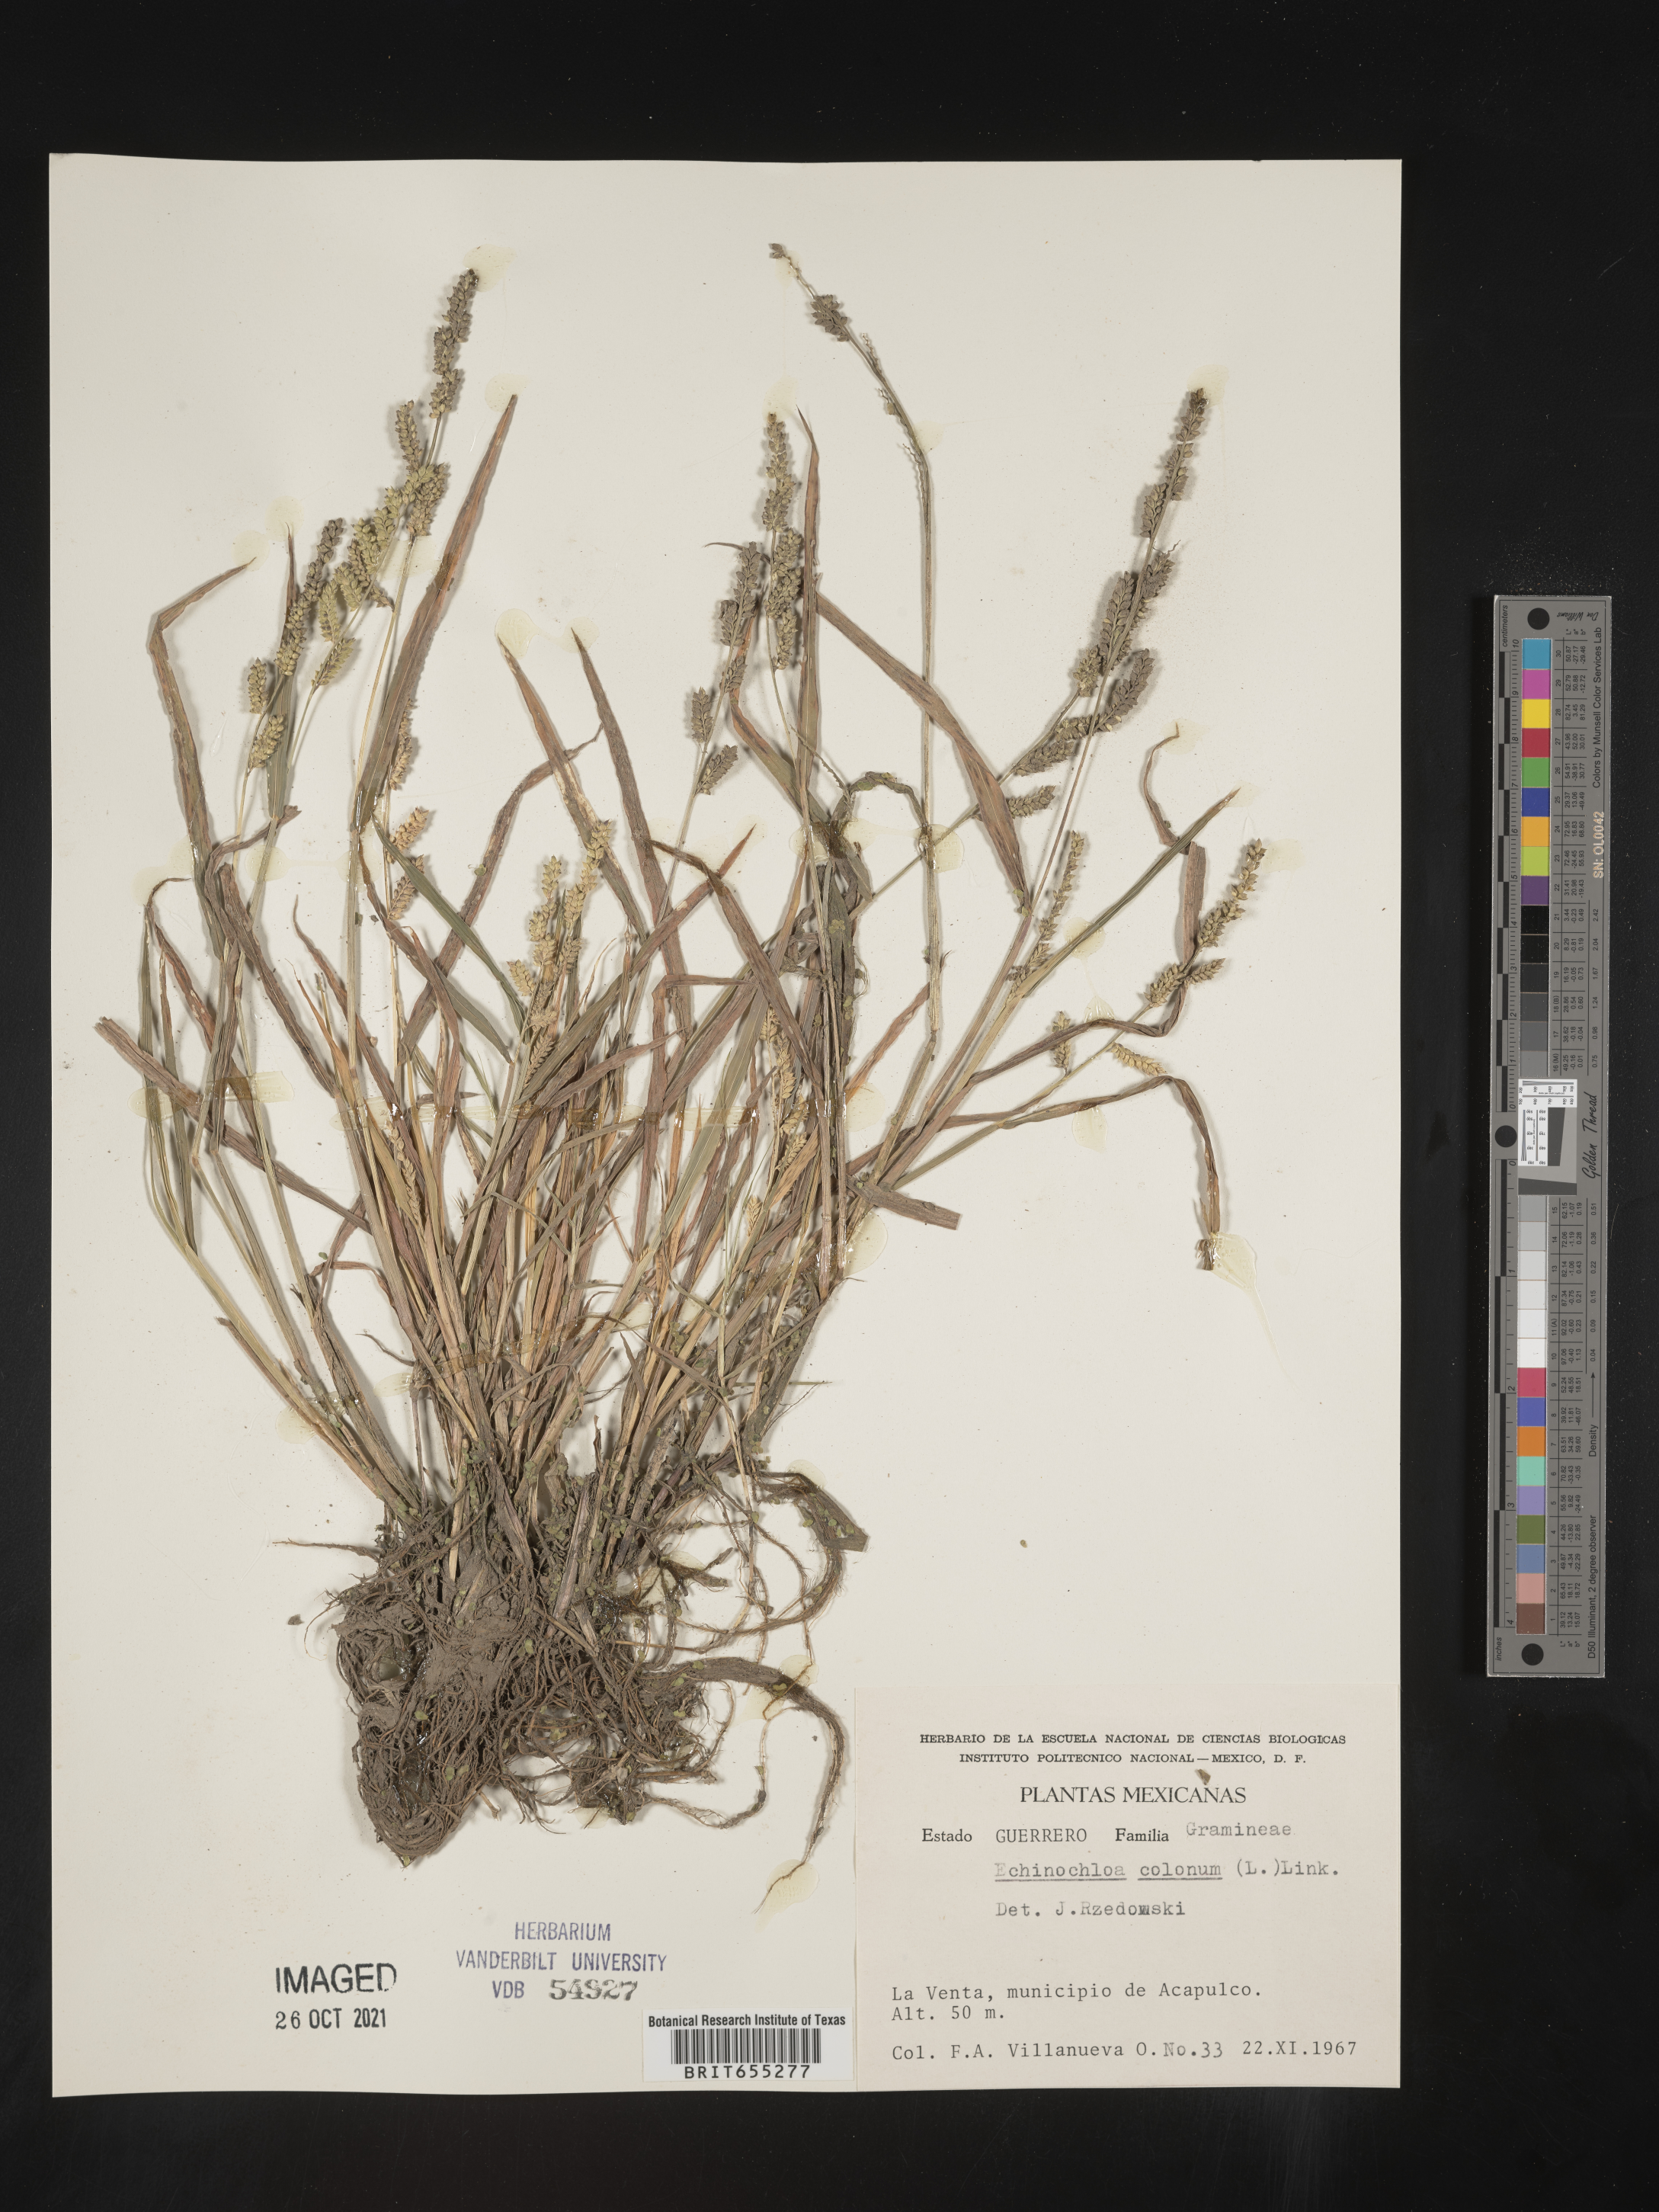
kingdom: Plantae
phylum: Tracheophyta
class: Liliopsida
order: Poales
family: Poaceae
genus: Echinochloa
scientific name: Echinochloa
